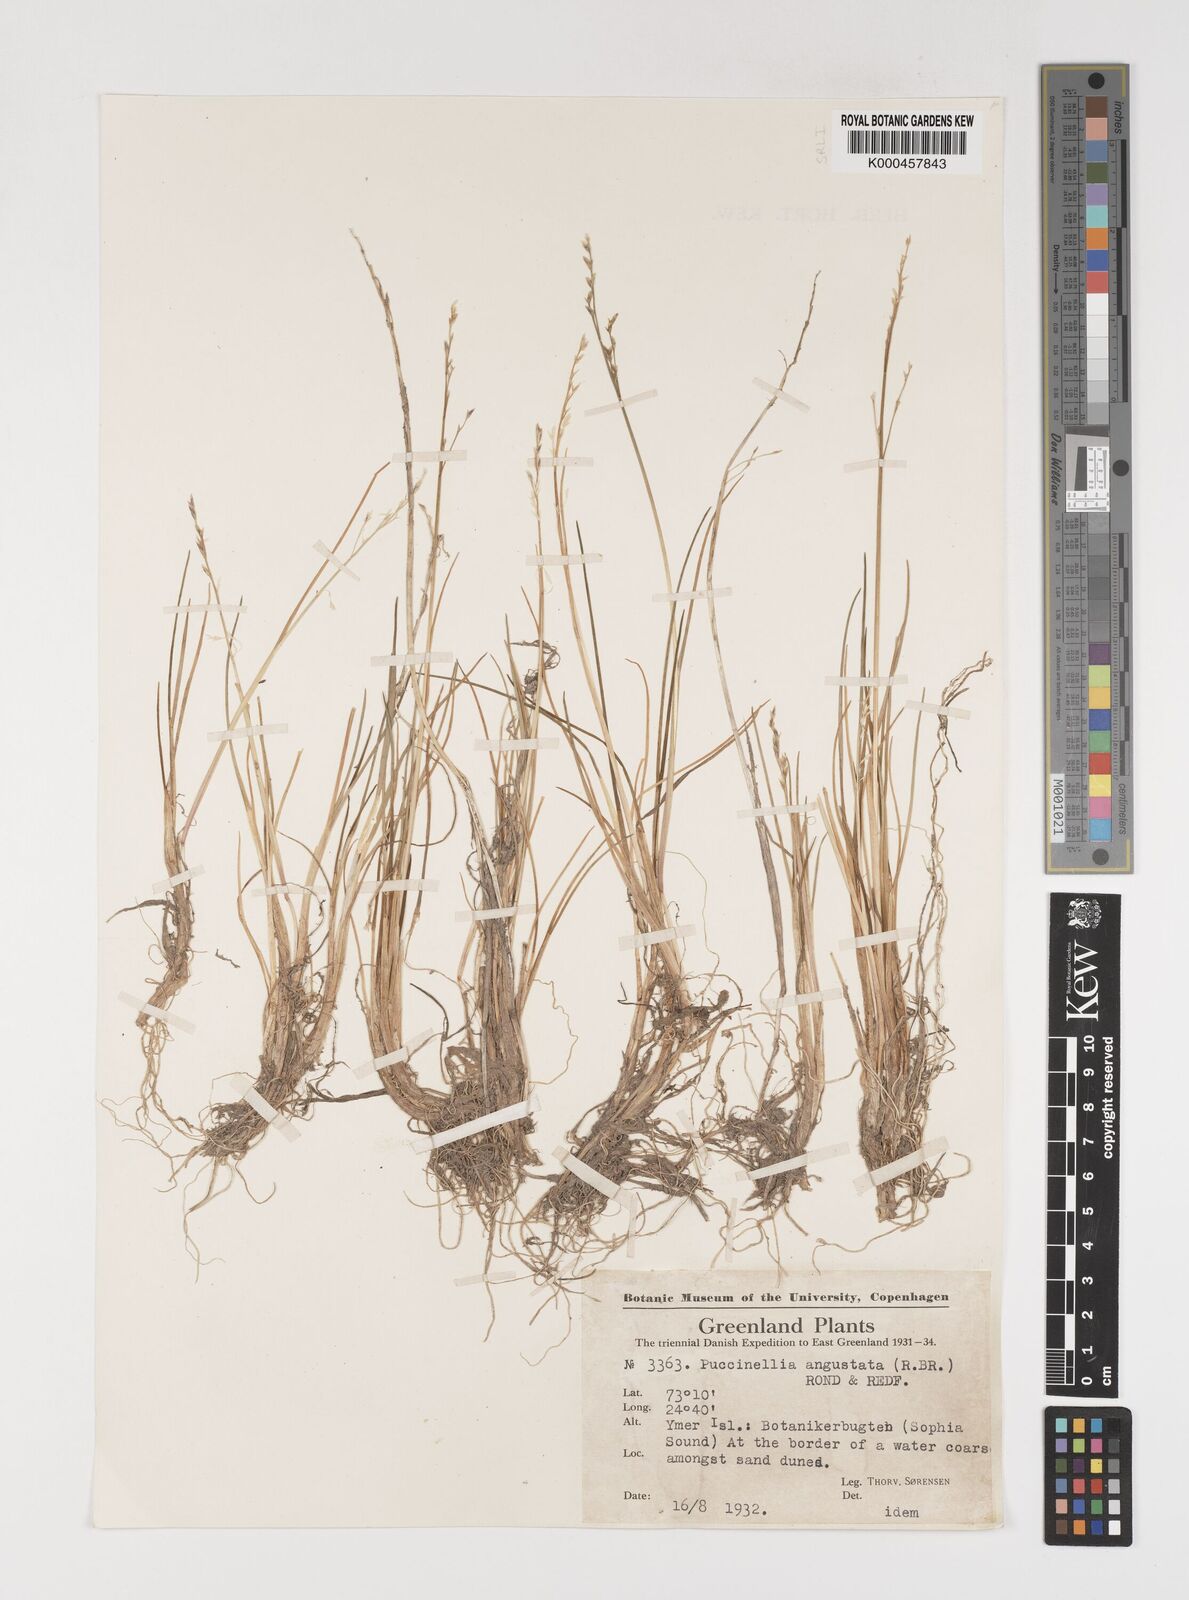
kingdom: Plantae
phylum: Tracheophyta
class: Liliopsida
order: Poales
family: Poaceae
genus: Puccinellia
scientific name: Puccinellia angustata
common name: Narrow alkaligrass
